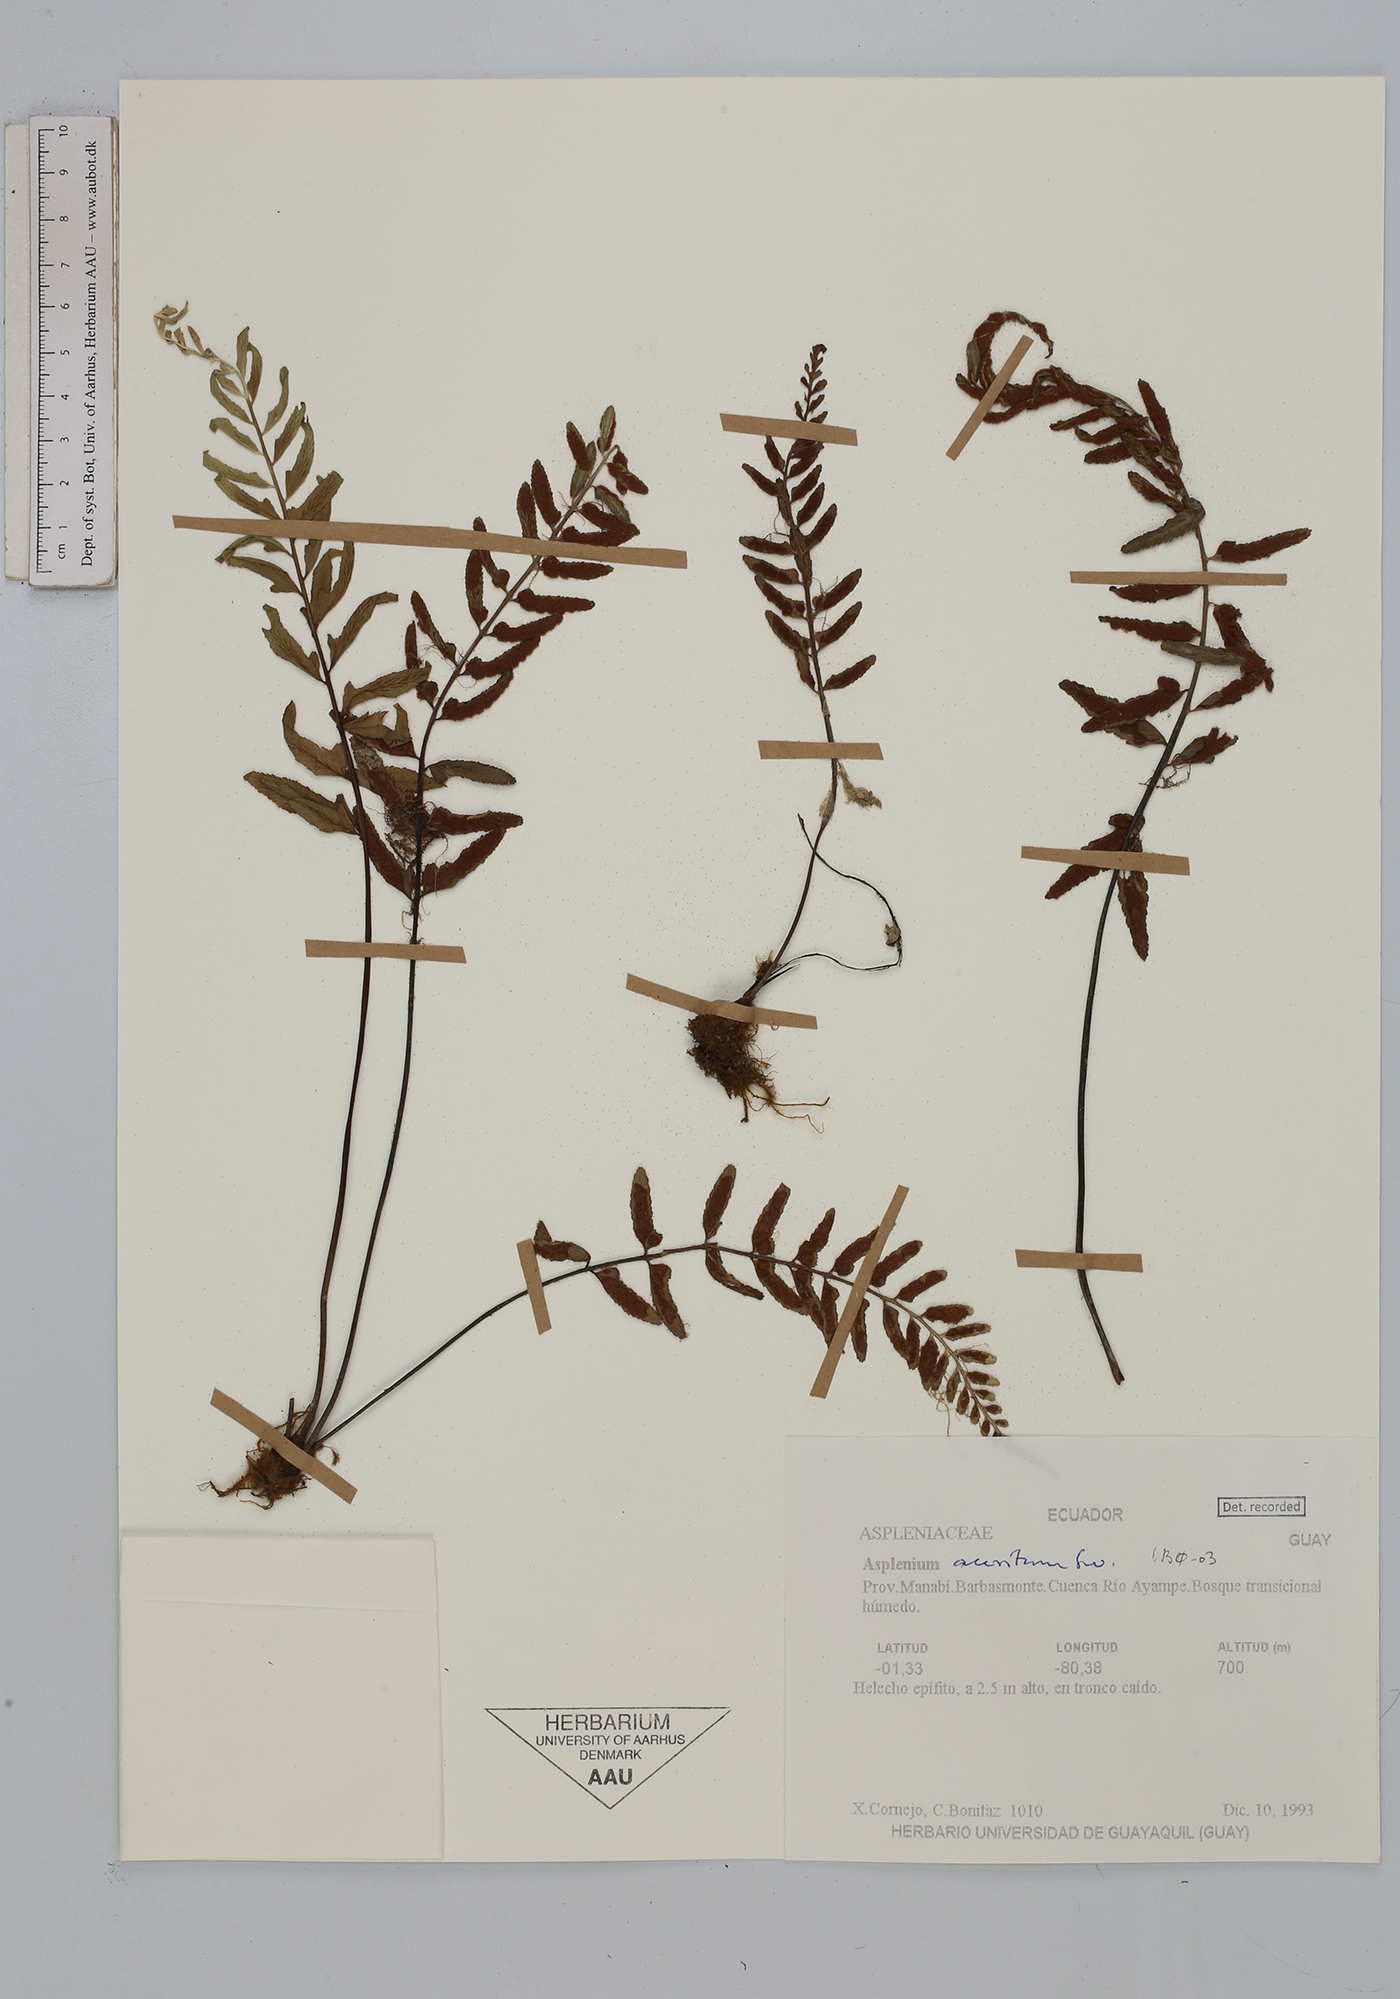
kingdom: Plantae
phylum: Tracheophyta
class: Polypodiopsida
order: Polypodiales
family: Aspleniaceae
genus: Asplenium
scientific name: Asplenium auritum
